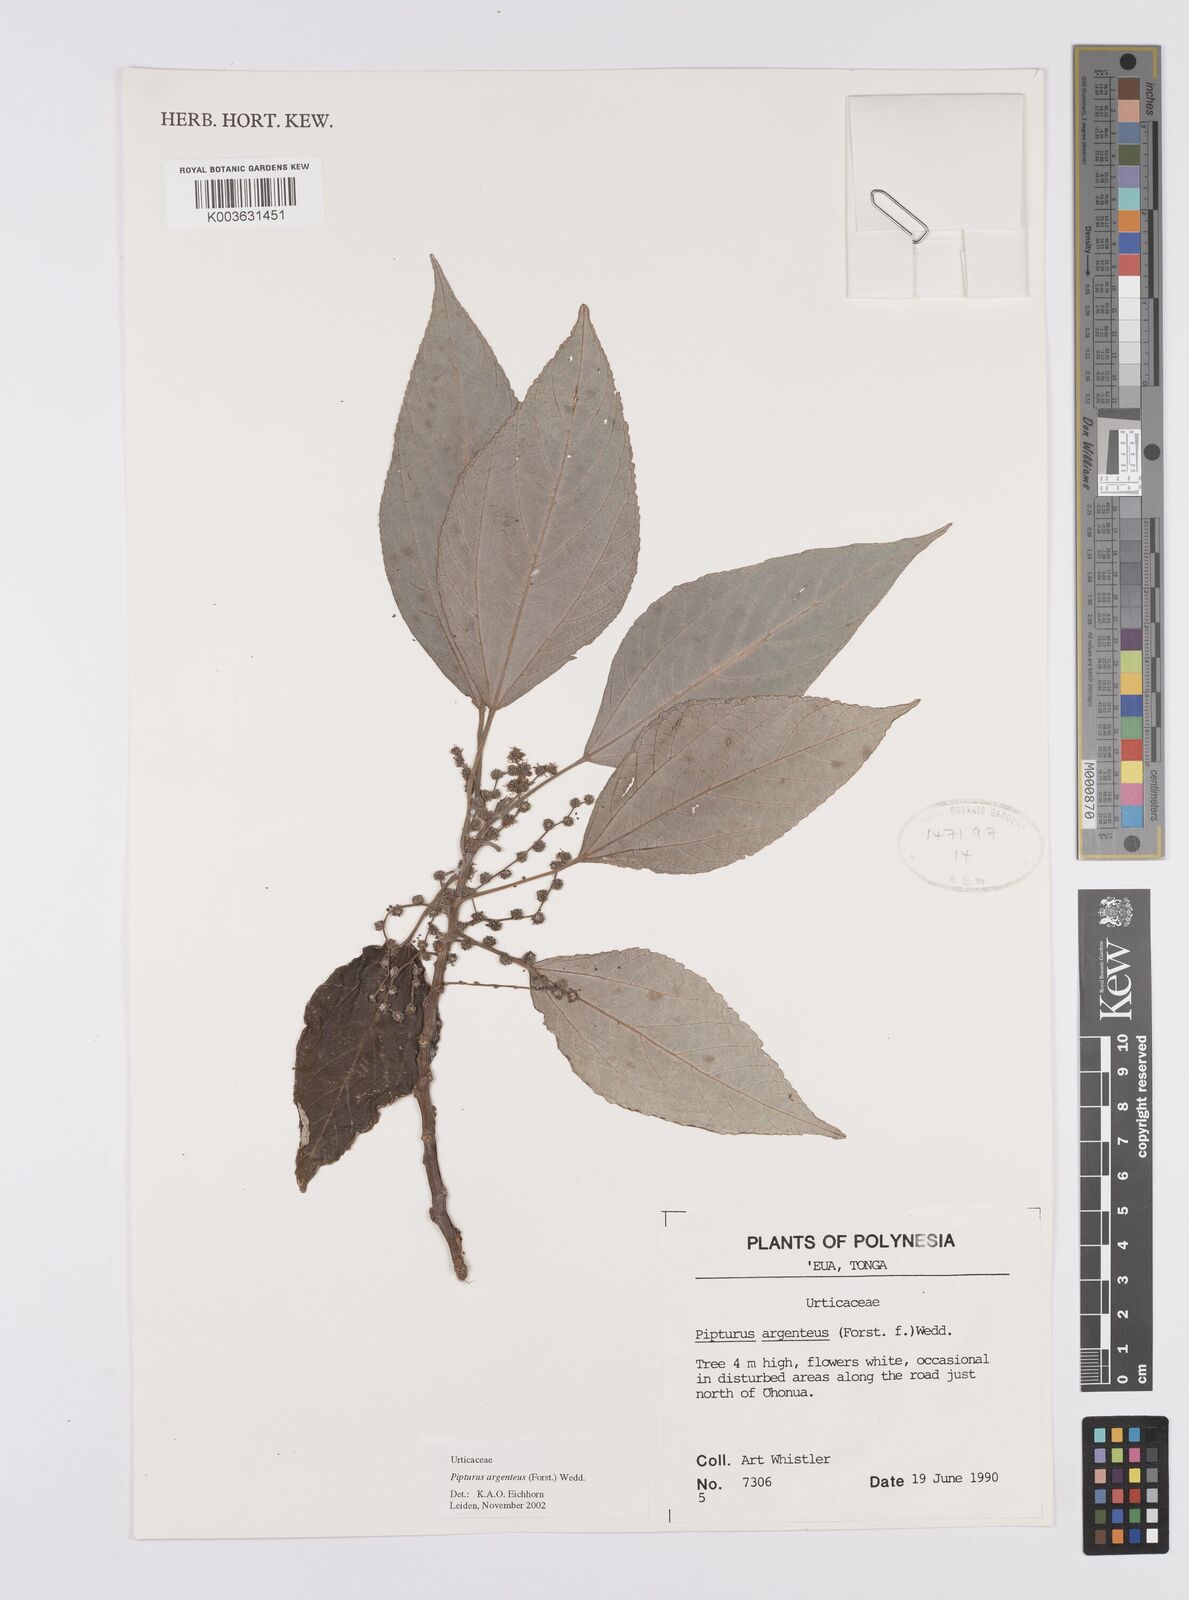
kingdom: Plantae
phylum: Tracheophyta
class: Magnoliopsida
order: Rosales
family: Urticaceae
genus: Pipturus
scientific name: Pipturus argenteus
